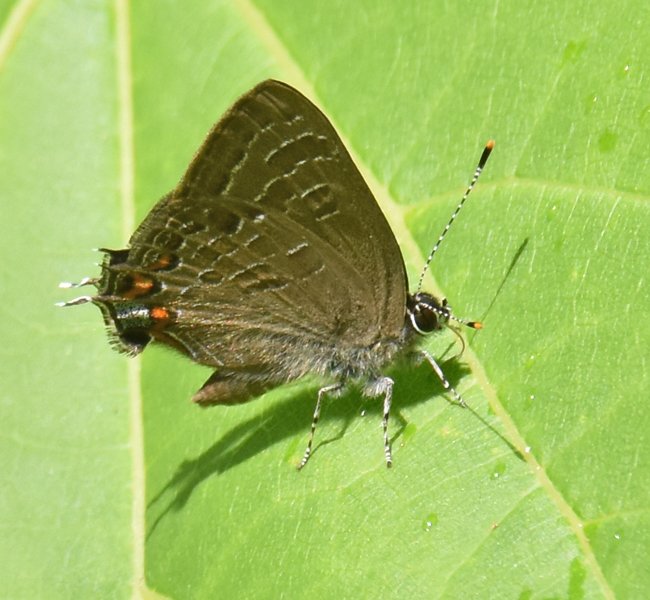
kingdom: Animalia
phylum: Arthropoda
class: Insecta
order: Lepidoptera
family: Lycaenidae
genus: Satyrium
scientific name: Satyrium liparops
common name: Striped Hairstreak
